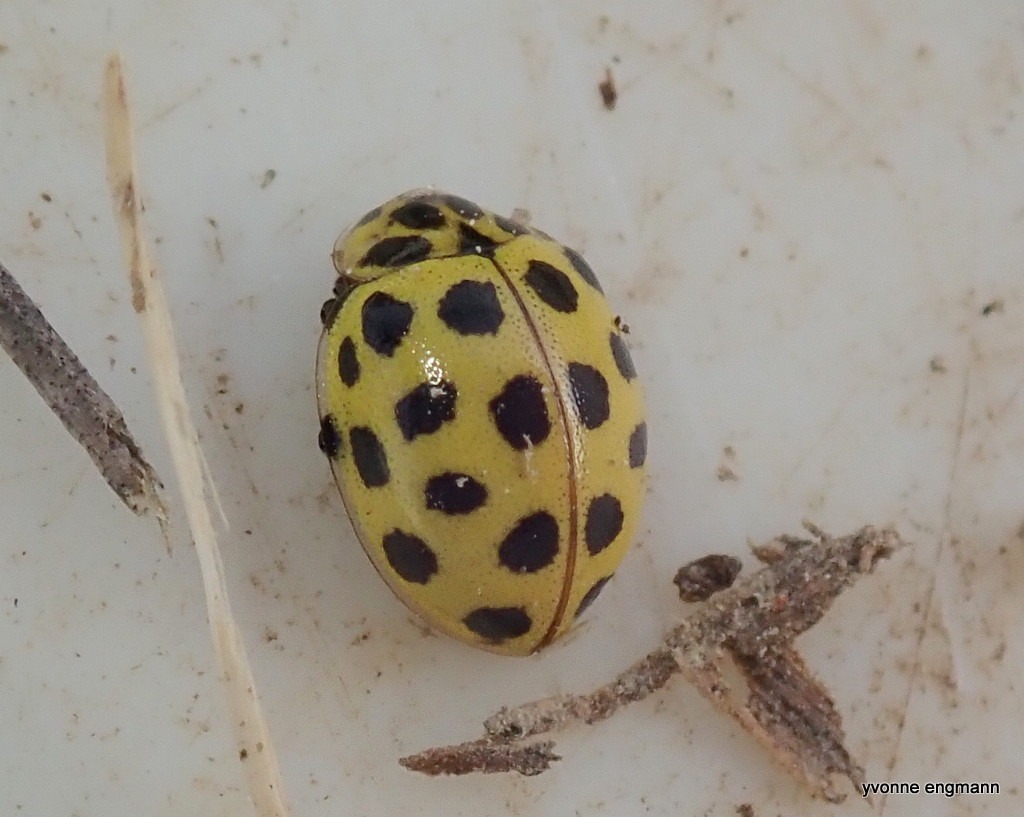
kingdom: Animalia
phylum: Arthropoda
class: Insecta
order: Coleoptera
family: Coccinellidae
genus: Psyllobora
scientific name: Psyllobora vigintiduopunctata
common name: Toogtyveplettet mariehøne
